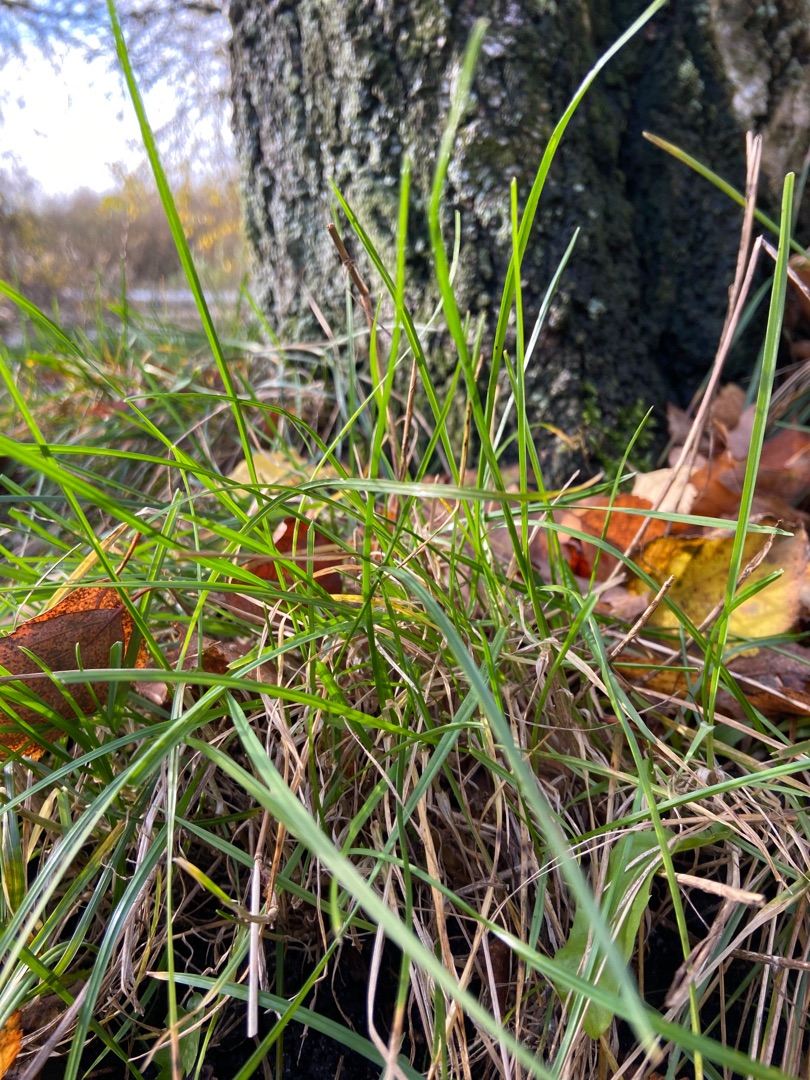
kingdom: Plantae
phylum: Tracheophyta
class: Liliopsida
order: Poales
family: Poaceae
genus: Lolium
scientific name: Lolium
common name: Rajgræsslægten
